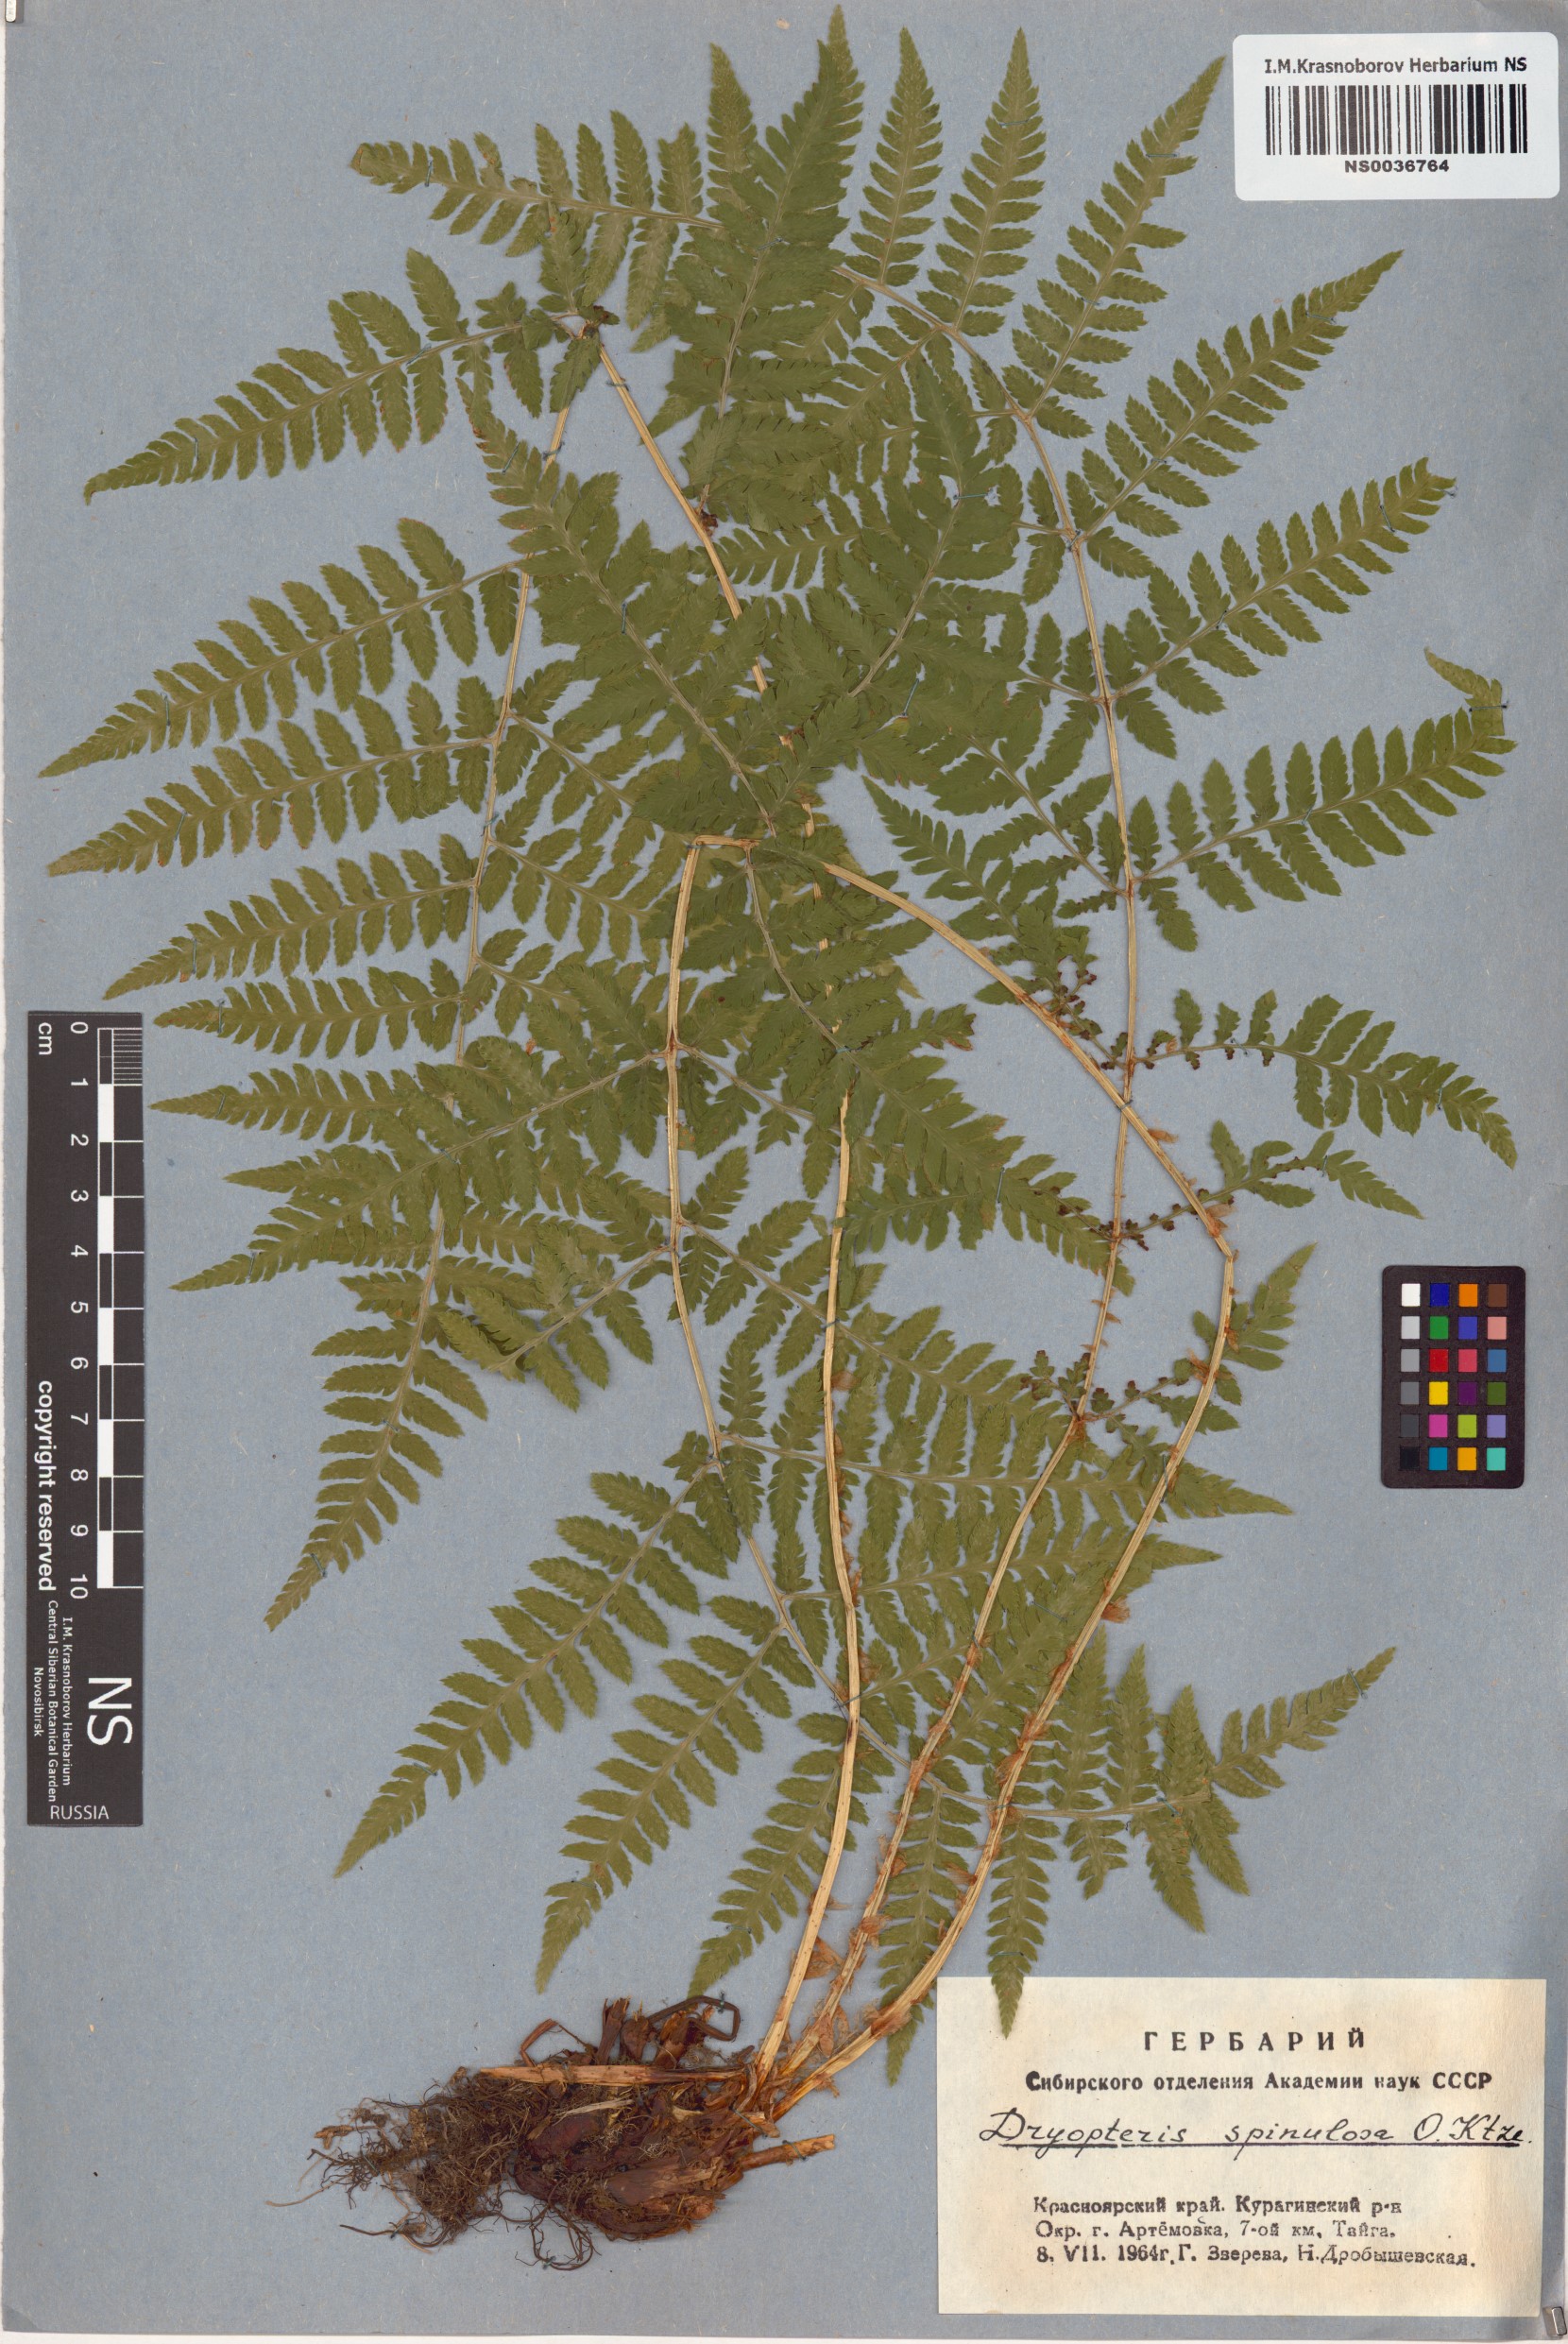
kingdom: Plantae
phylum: Tracheophyta
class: Polypodiopsida
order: Polypodiales
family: Dryopteridaceae
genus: Dryopteris
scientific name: Dryopteris carthusiana
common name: Narrow buckler-fern
